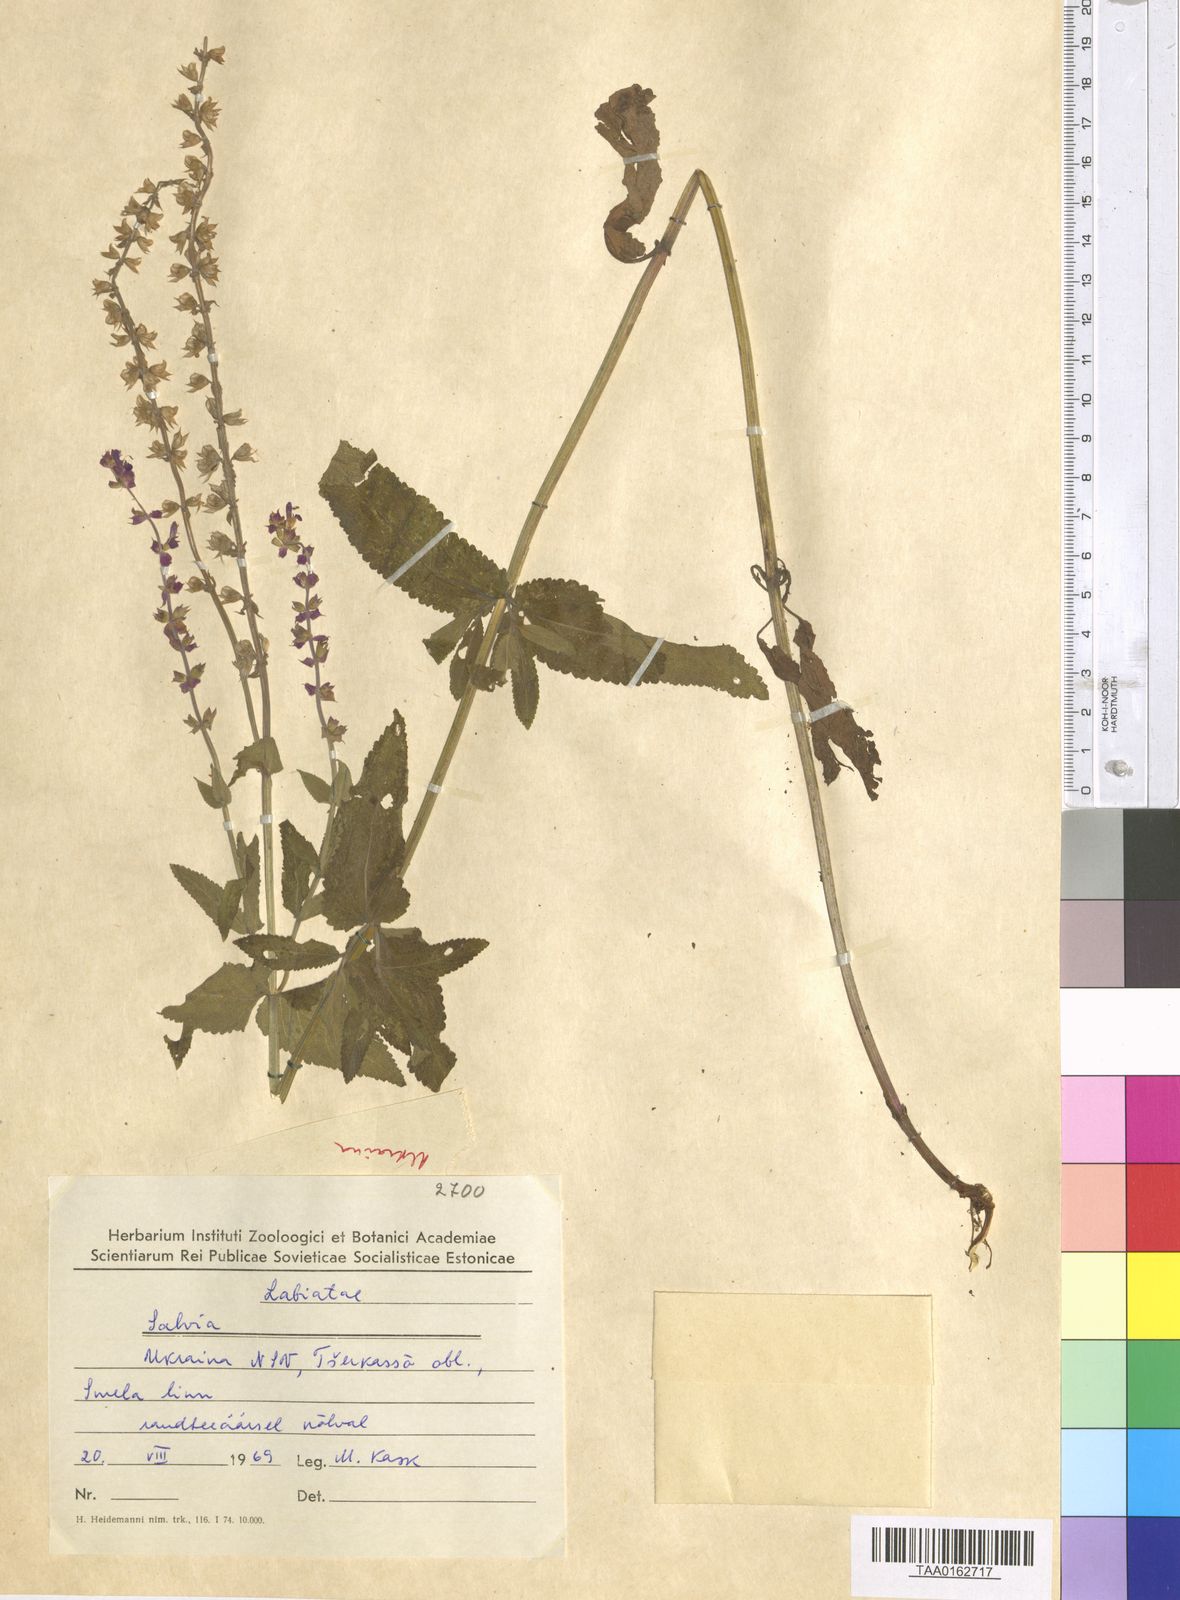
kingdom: Plantae
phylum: Tracheophyta
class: Magnoliopsida
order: Lamiales
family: Lamiaceae
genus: Salvia
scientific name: Salvia
